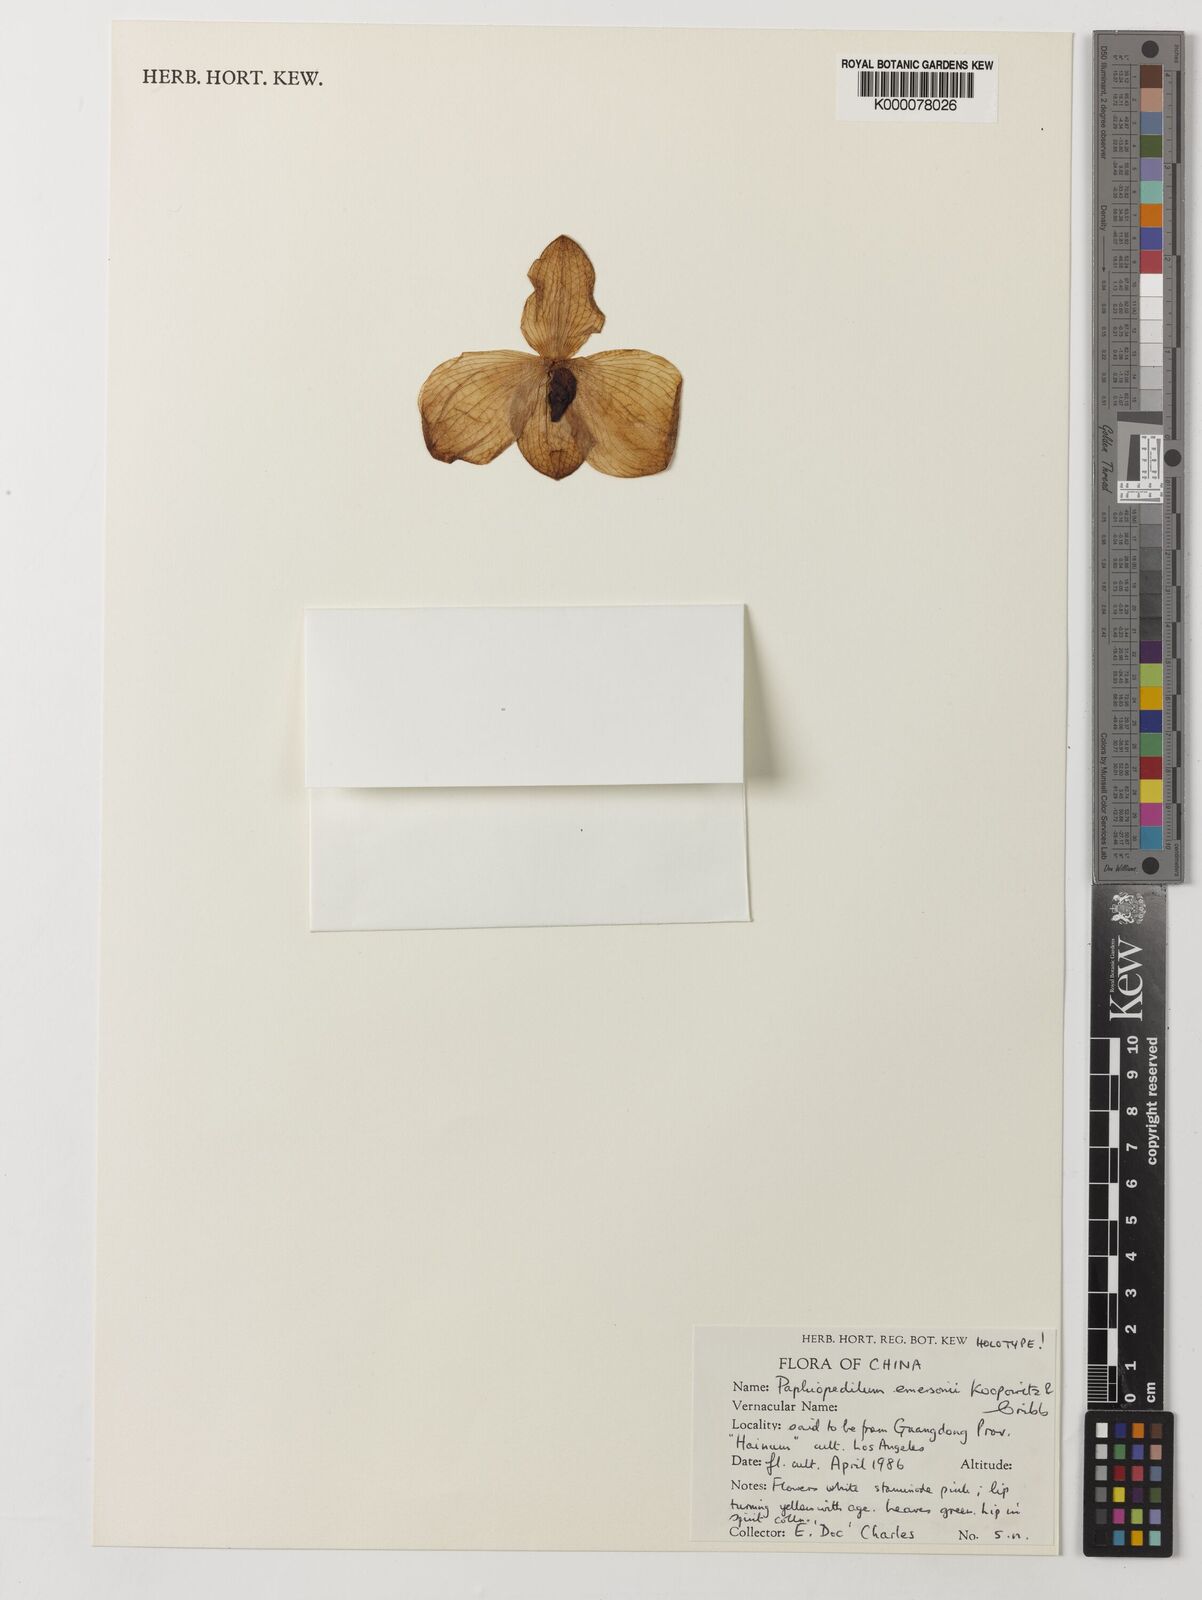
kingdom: Plantae
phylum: Tracheophyta
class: Liliopsida
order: Asparagales
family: Orchidaceae
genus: Paphiopedilum
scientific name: Paphiopedilum emersonii
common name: Emerson's paphiopedilum
